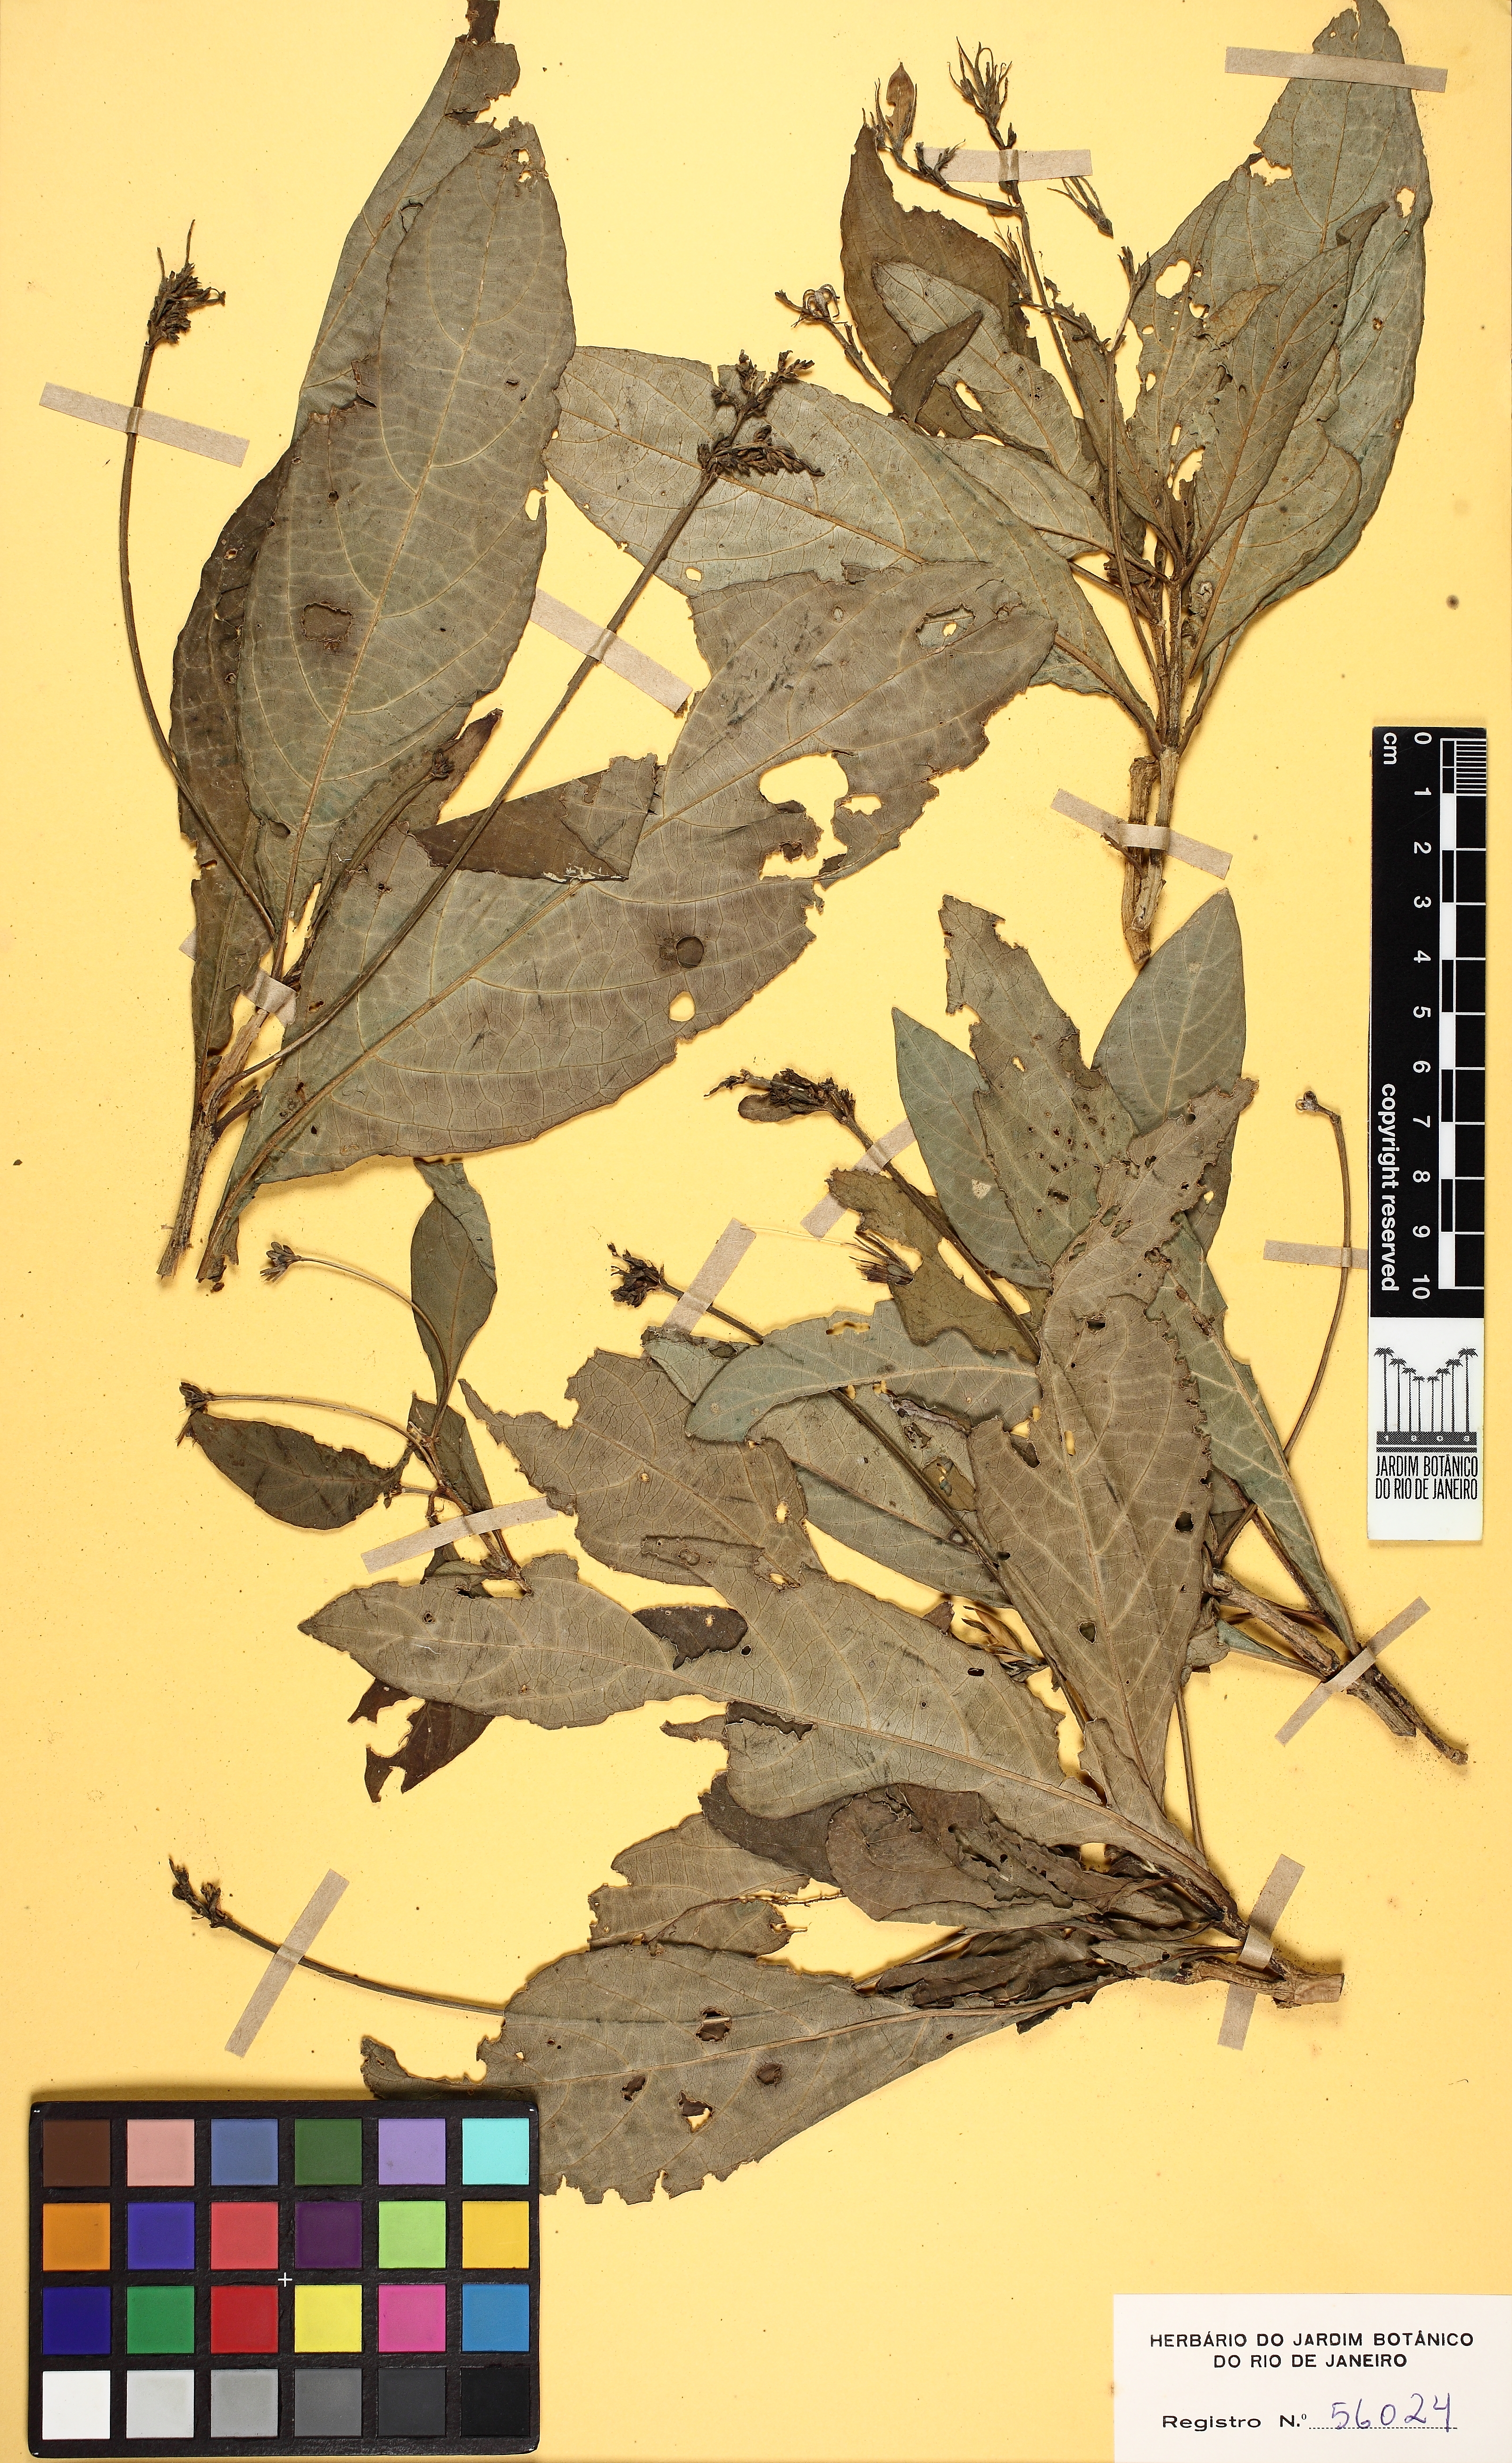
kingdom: Plantae
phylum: Tracheophyta
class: Magnoliopsida
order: Lamiales
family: Acanthaceae
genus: Ruellia
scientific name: Ruellia
